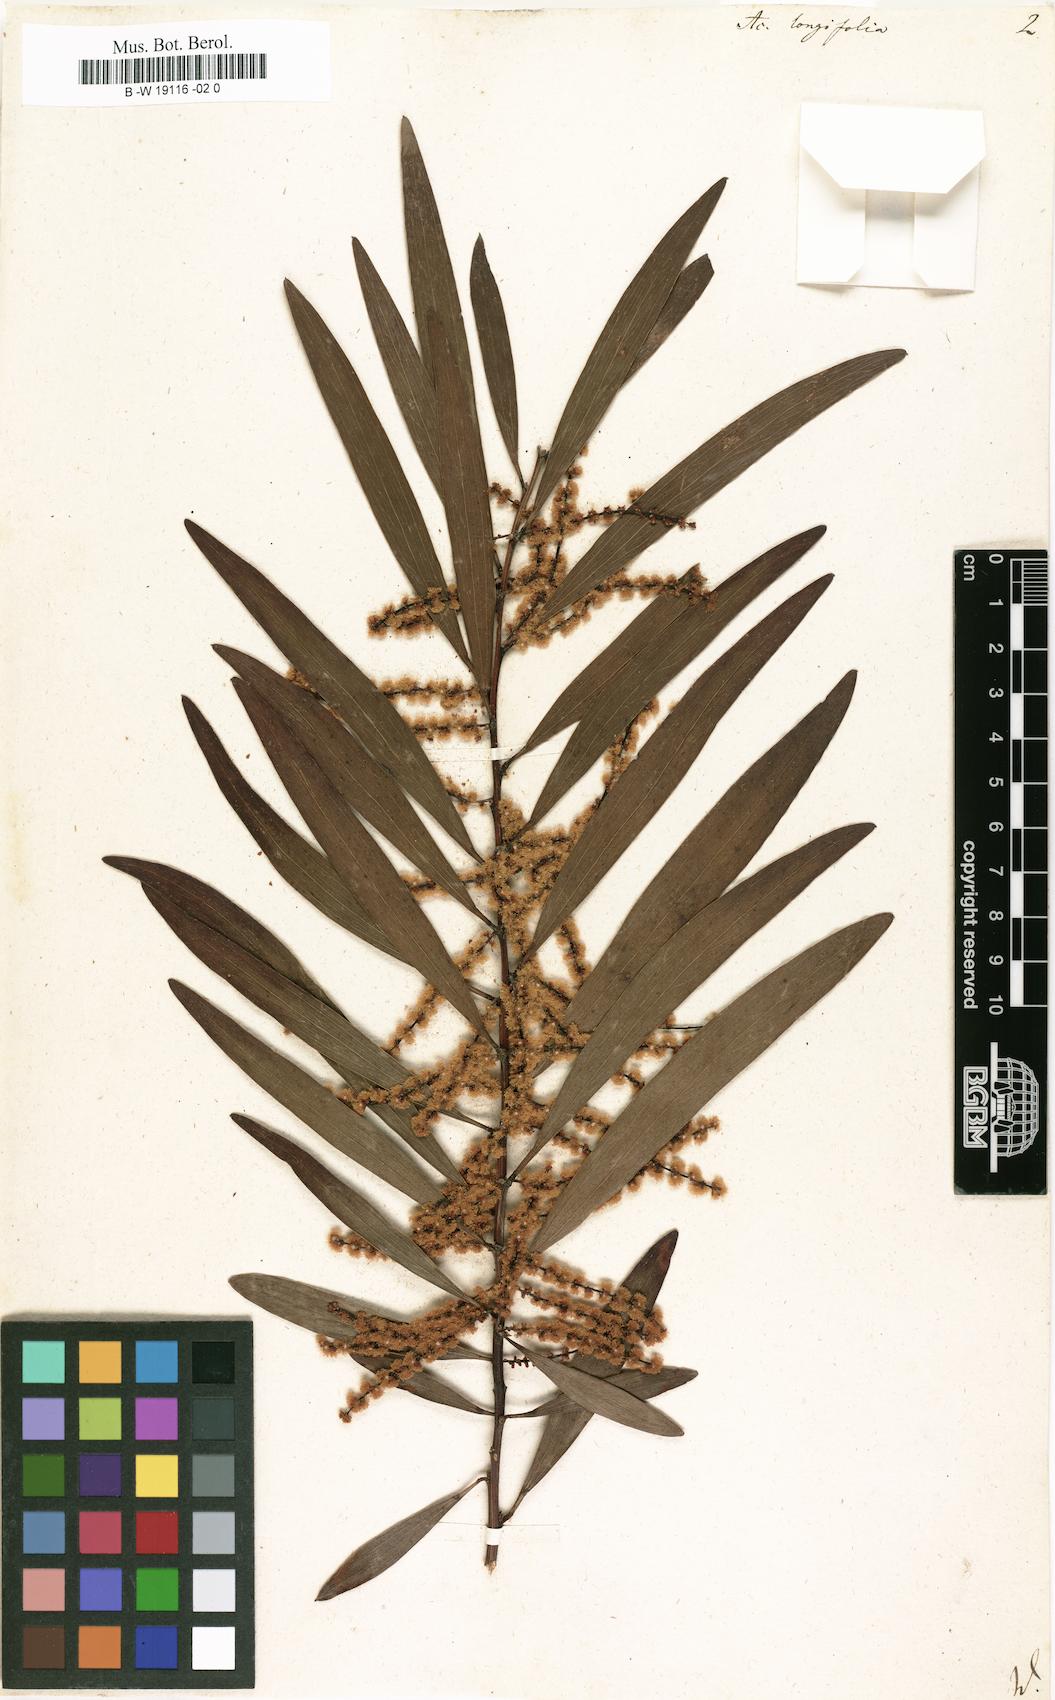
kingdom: Plantae
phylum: Tracheophyta
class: Magnoliopsida
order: Fabales
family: Fabaceae
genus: Acacia
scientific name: Acacia longifolia
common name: Sydney golden wattle
